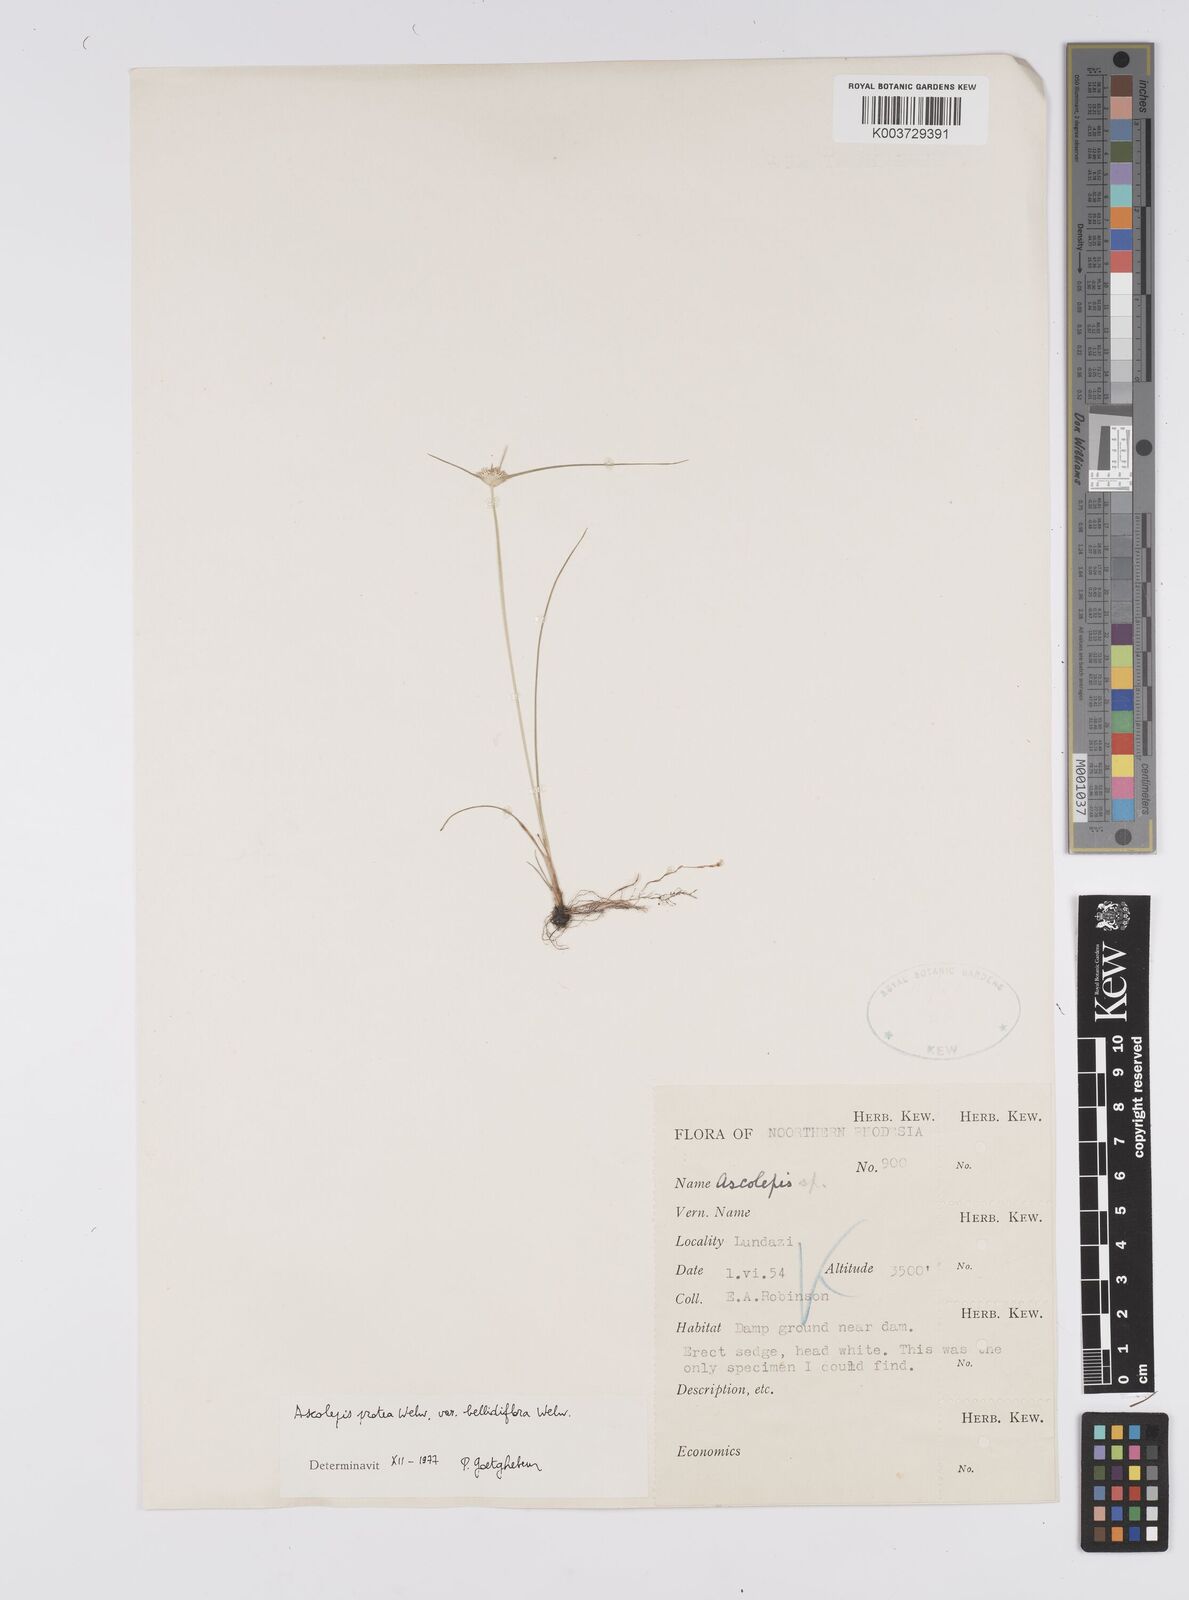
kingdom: Plantae
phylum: Tracheophyta
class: Liliopsida
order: Poales
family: Cyperaceae
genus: Cyperus
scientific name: Cyperus proteus
